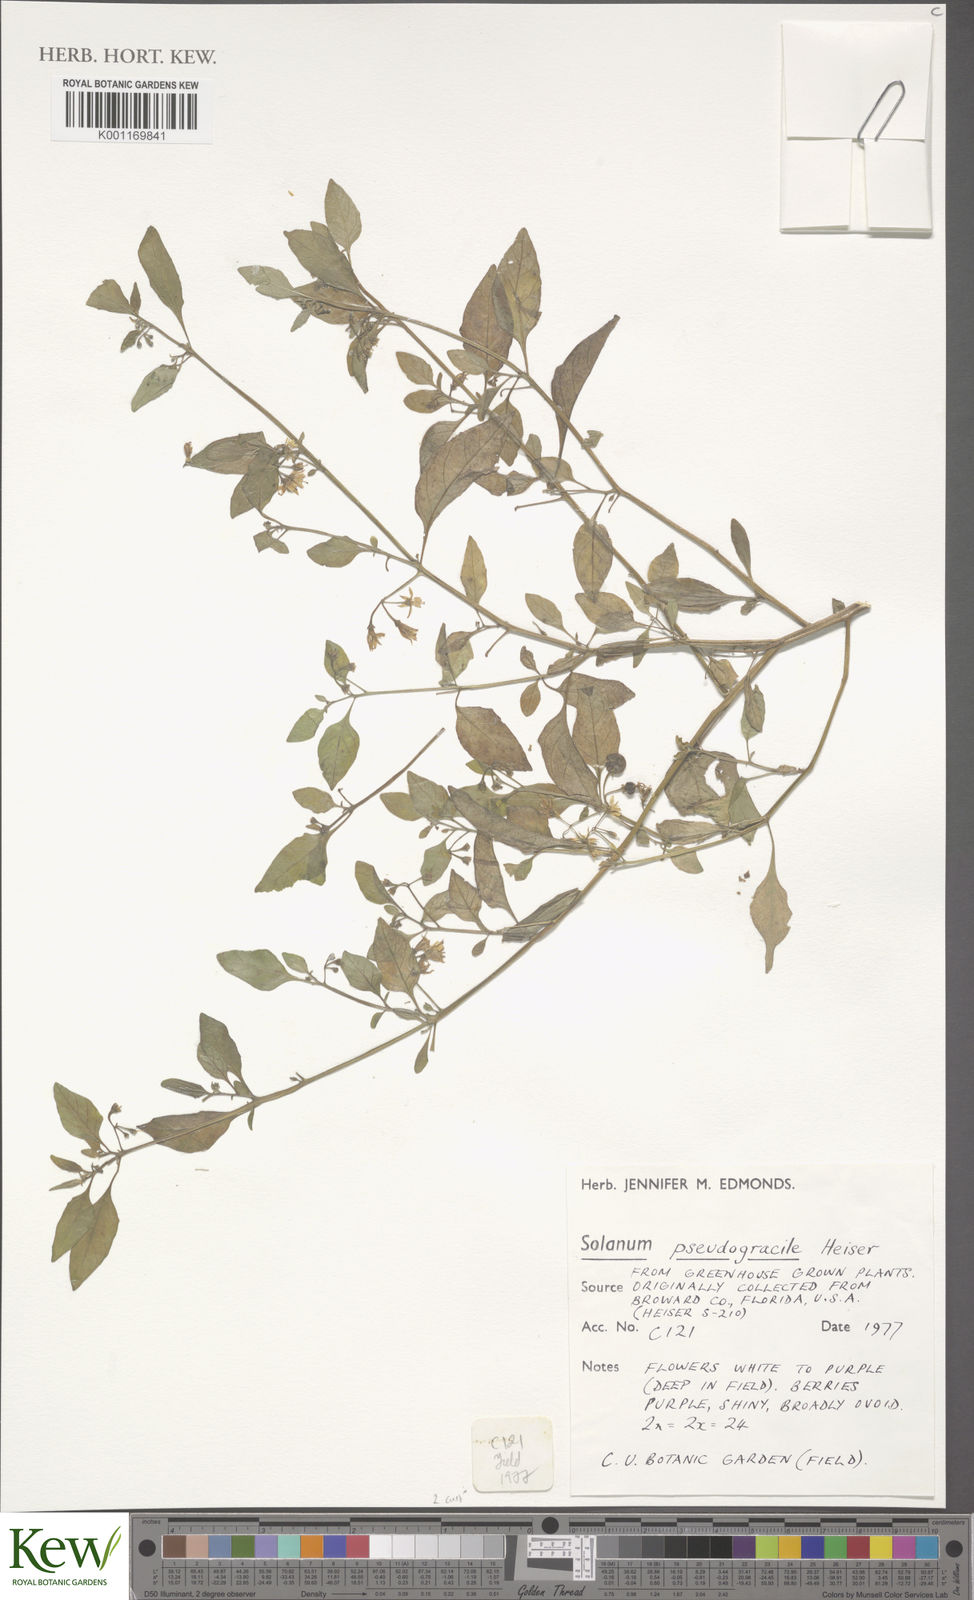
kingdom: Plantae
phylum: Tracheophyta
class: Magnoliopsida
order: Solanales
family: Solanaceae
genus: Solanum
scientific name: Solanum pseudogracile
